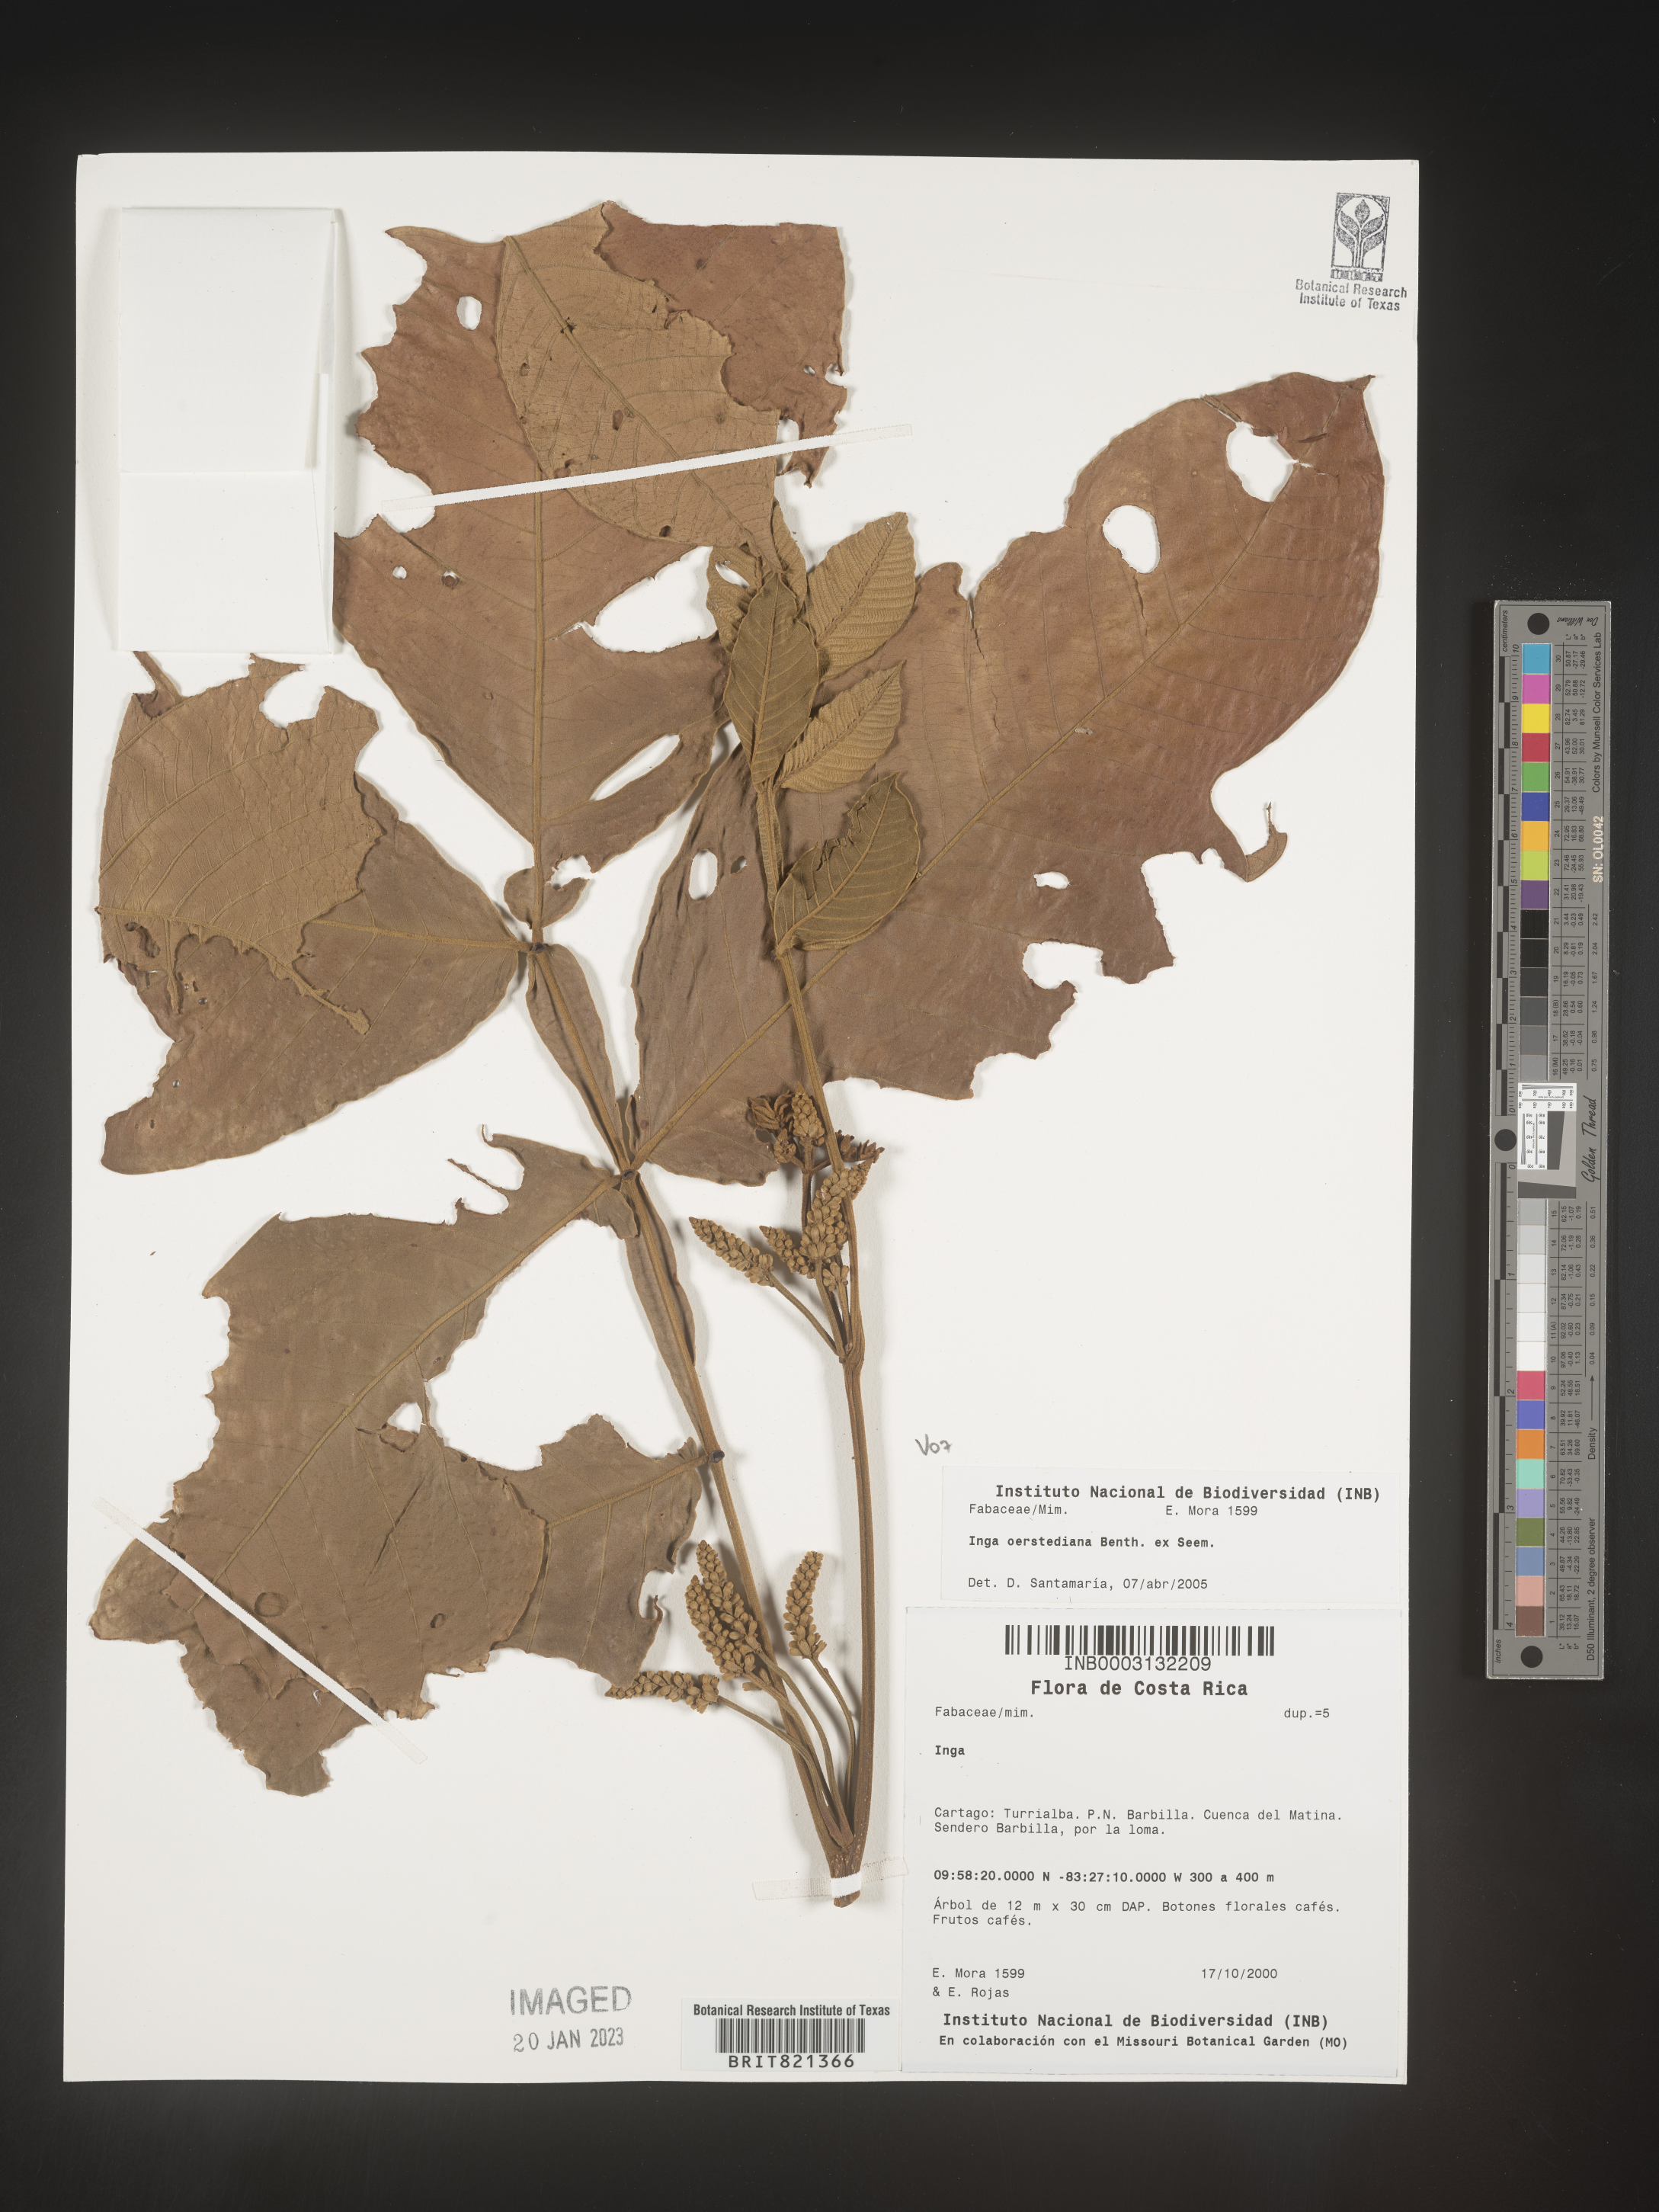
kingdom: Plantae
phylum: Tracheophyta
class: Magnoliopsida
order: Fabales
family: Fabaceae
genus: Inga
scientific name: Inga
